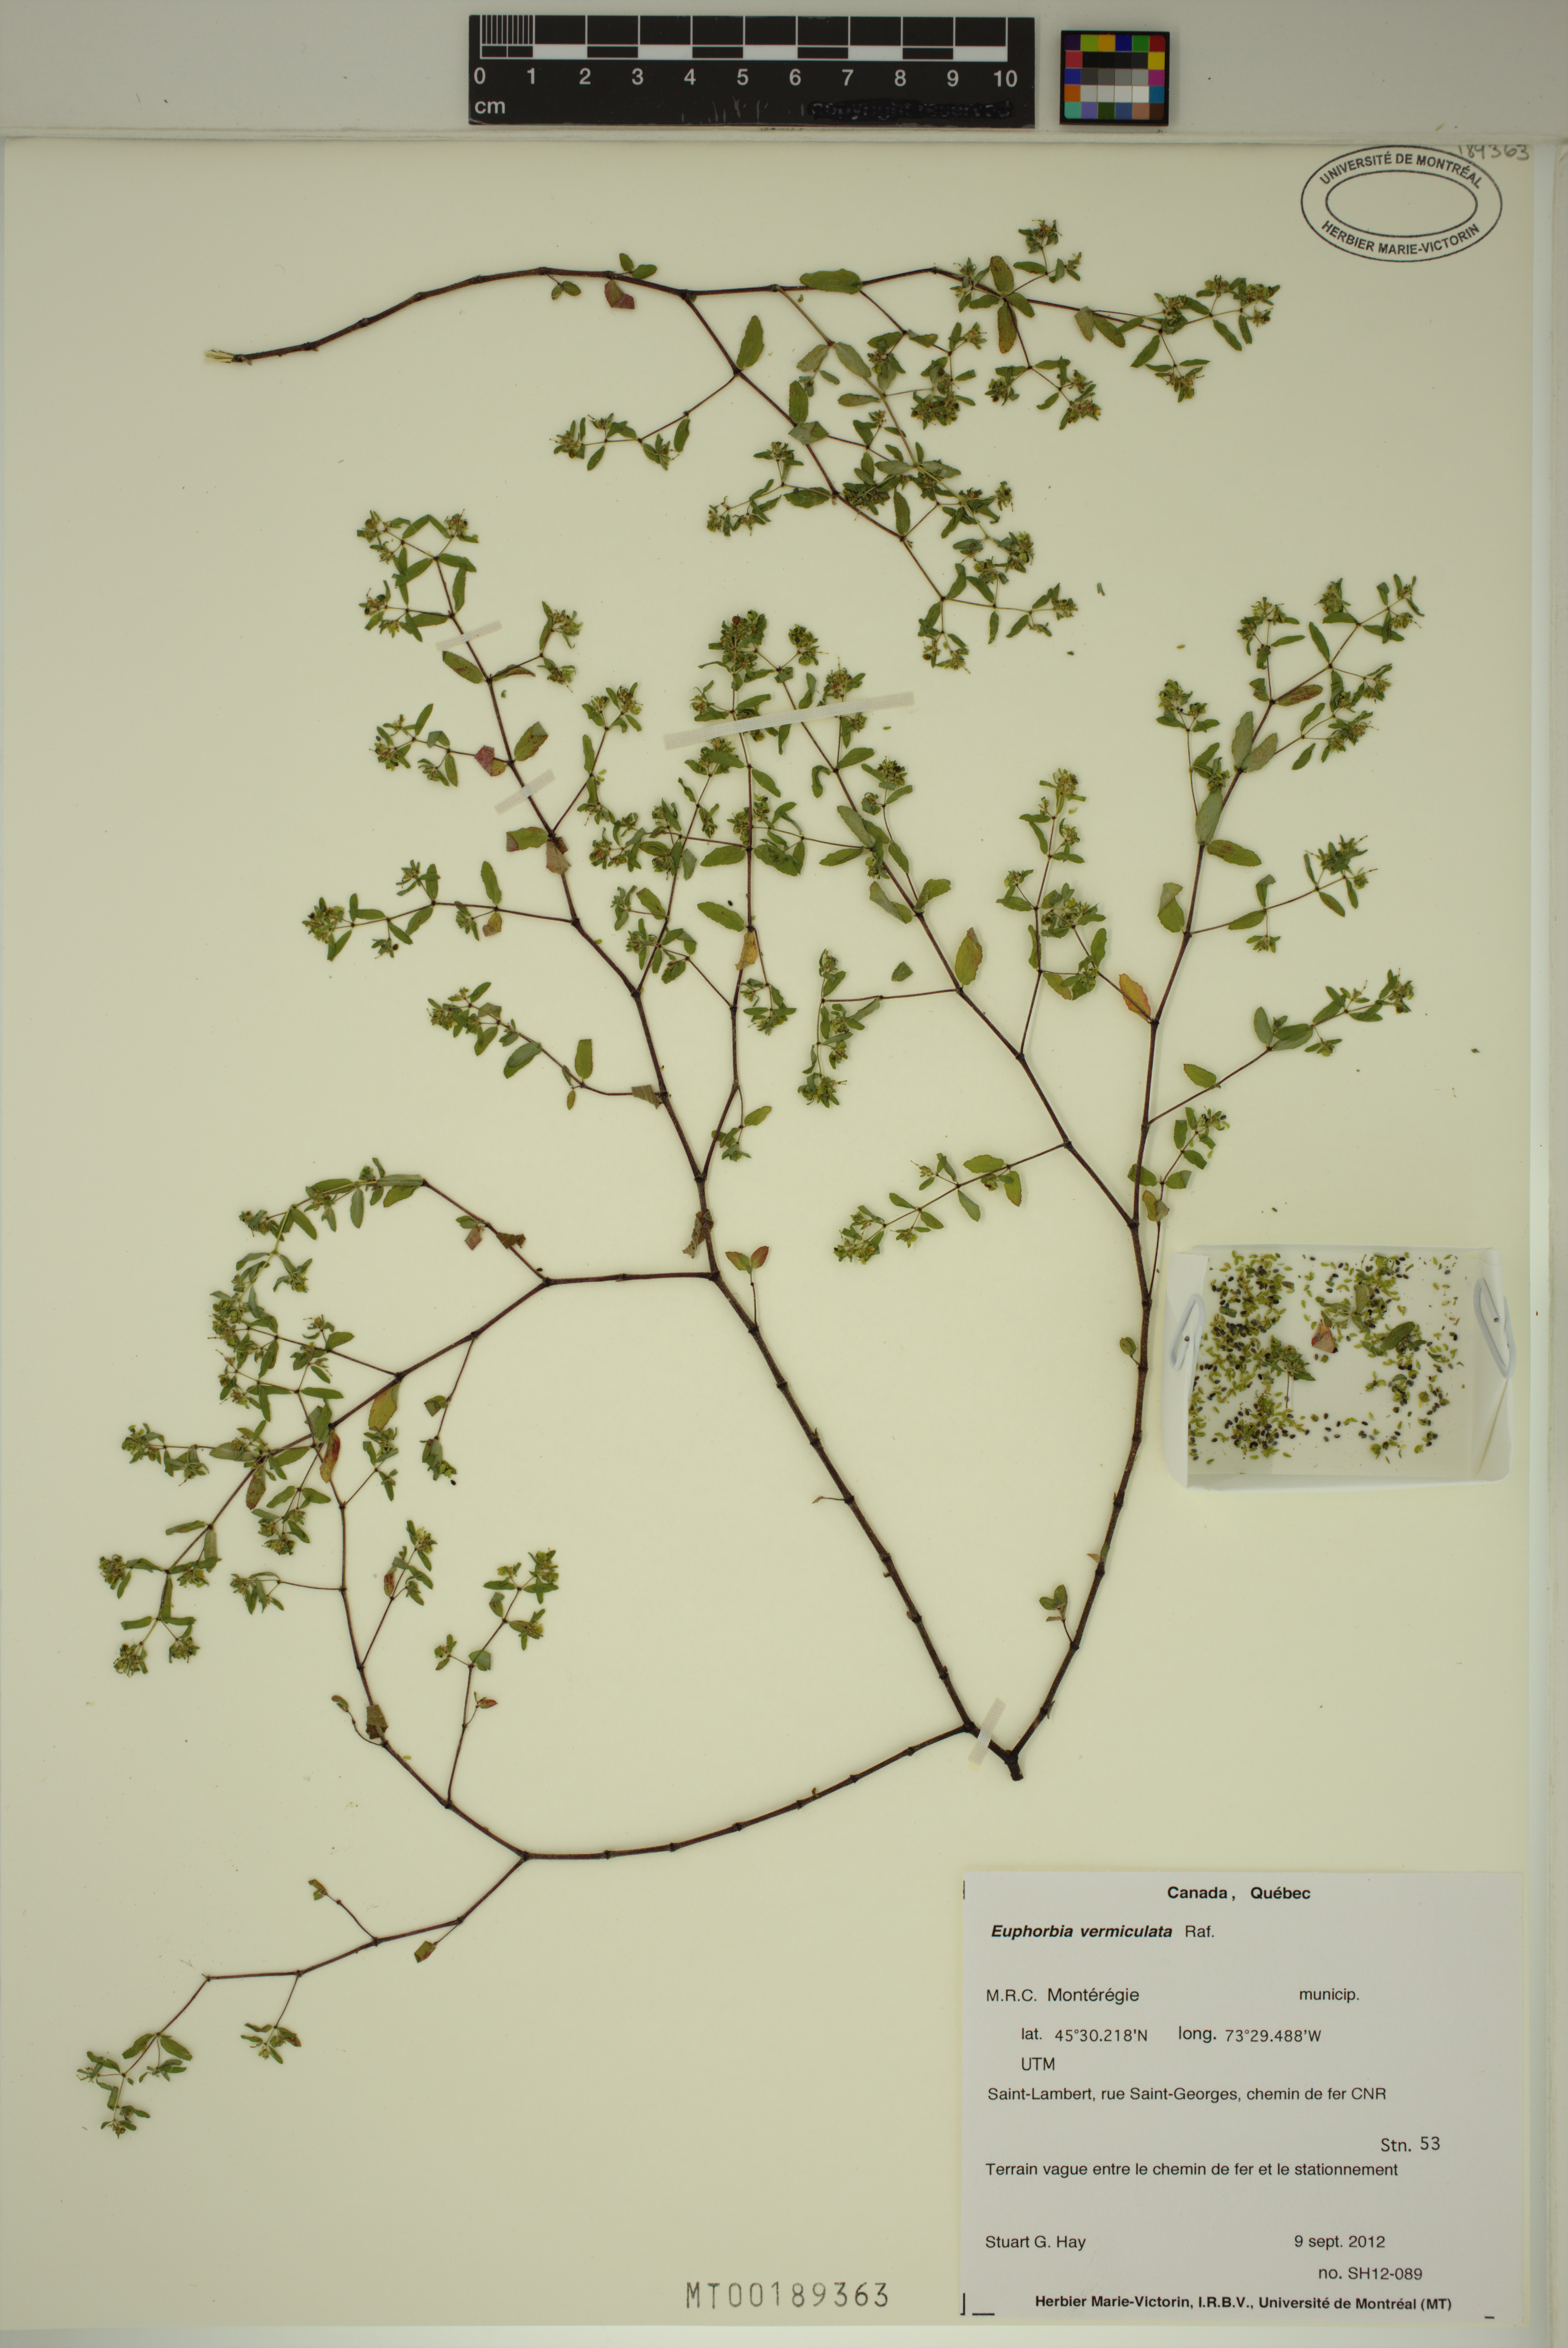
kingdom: Plantae
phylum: Tracheophyta
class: Magnoliopsida
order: Malpighiales
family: Euphorbiaceae
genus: Euphorbia
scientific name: Euphorbia vermiculata
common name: Hairy spurge
